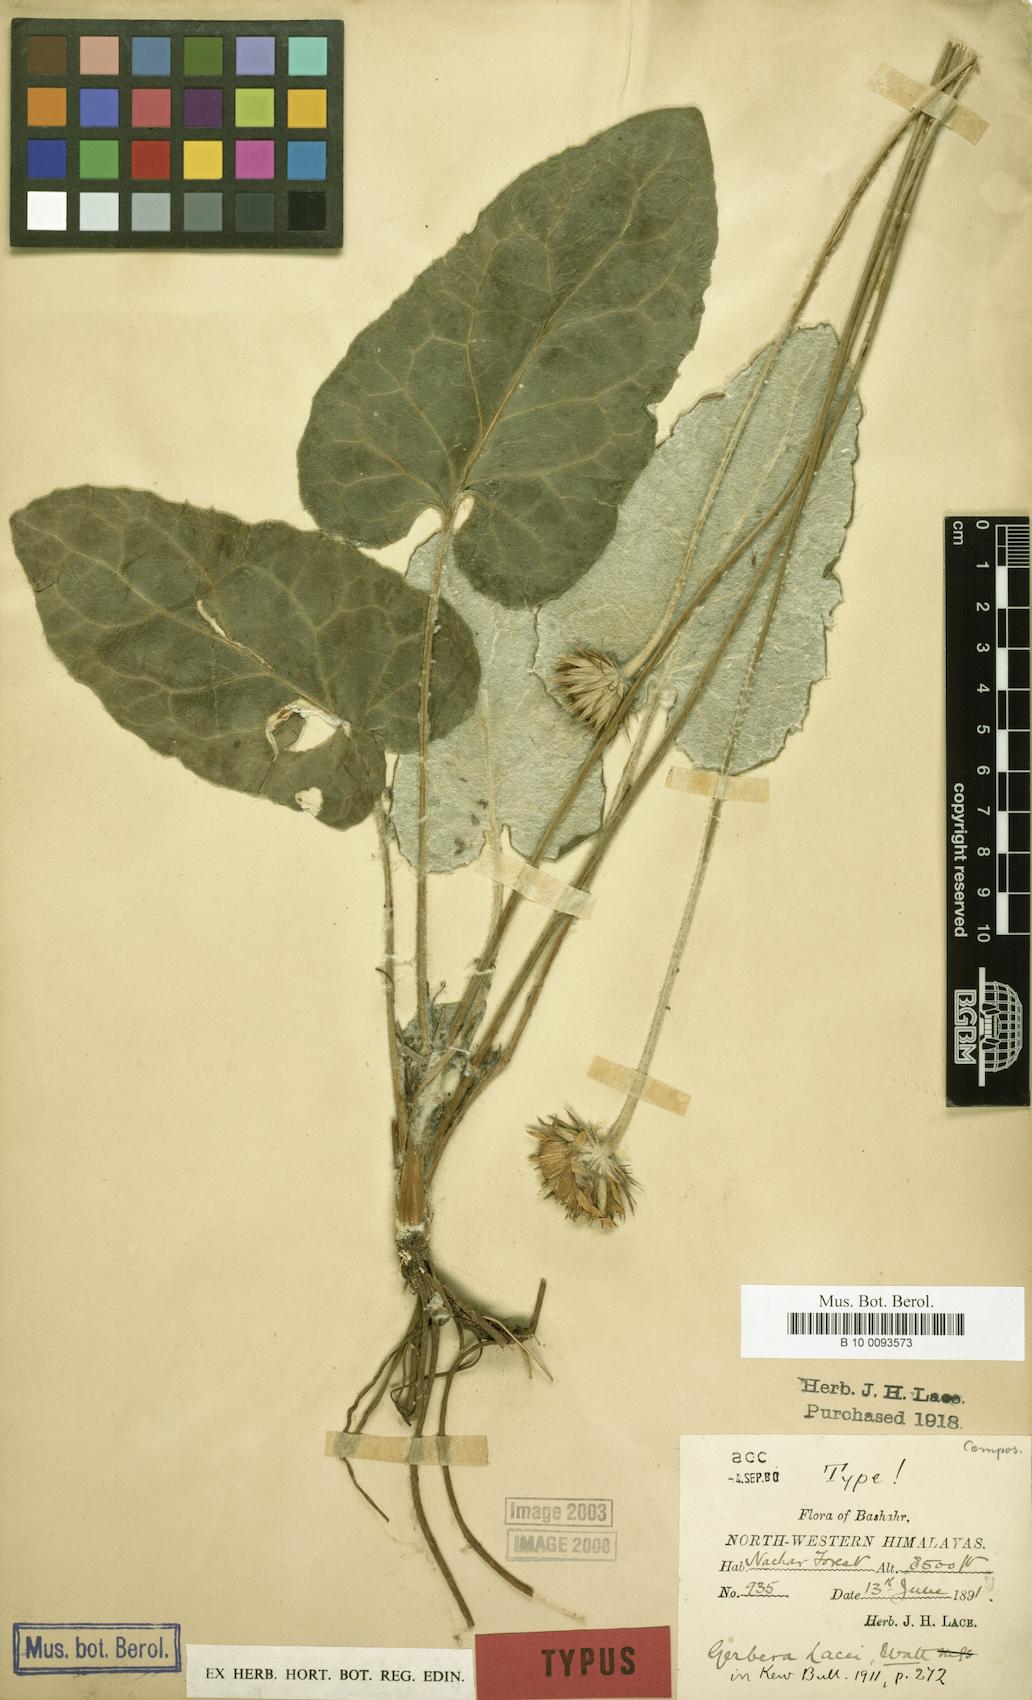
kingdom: Plantae
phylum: Tracheophyta
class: Magnoliopsida
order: Asterales
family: Asteraceae
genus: Oreoseris
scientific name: Oreoseris lacei
